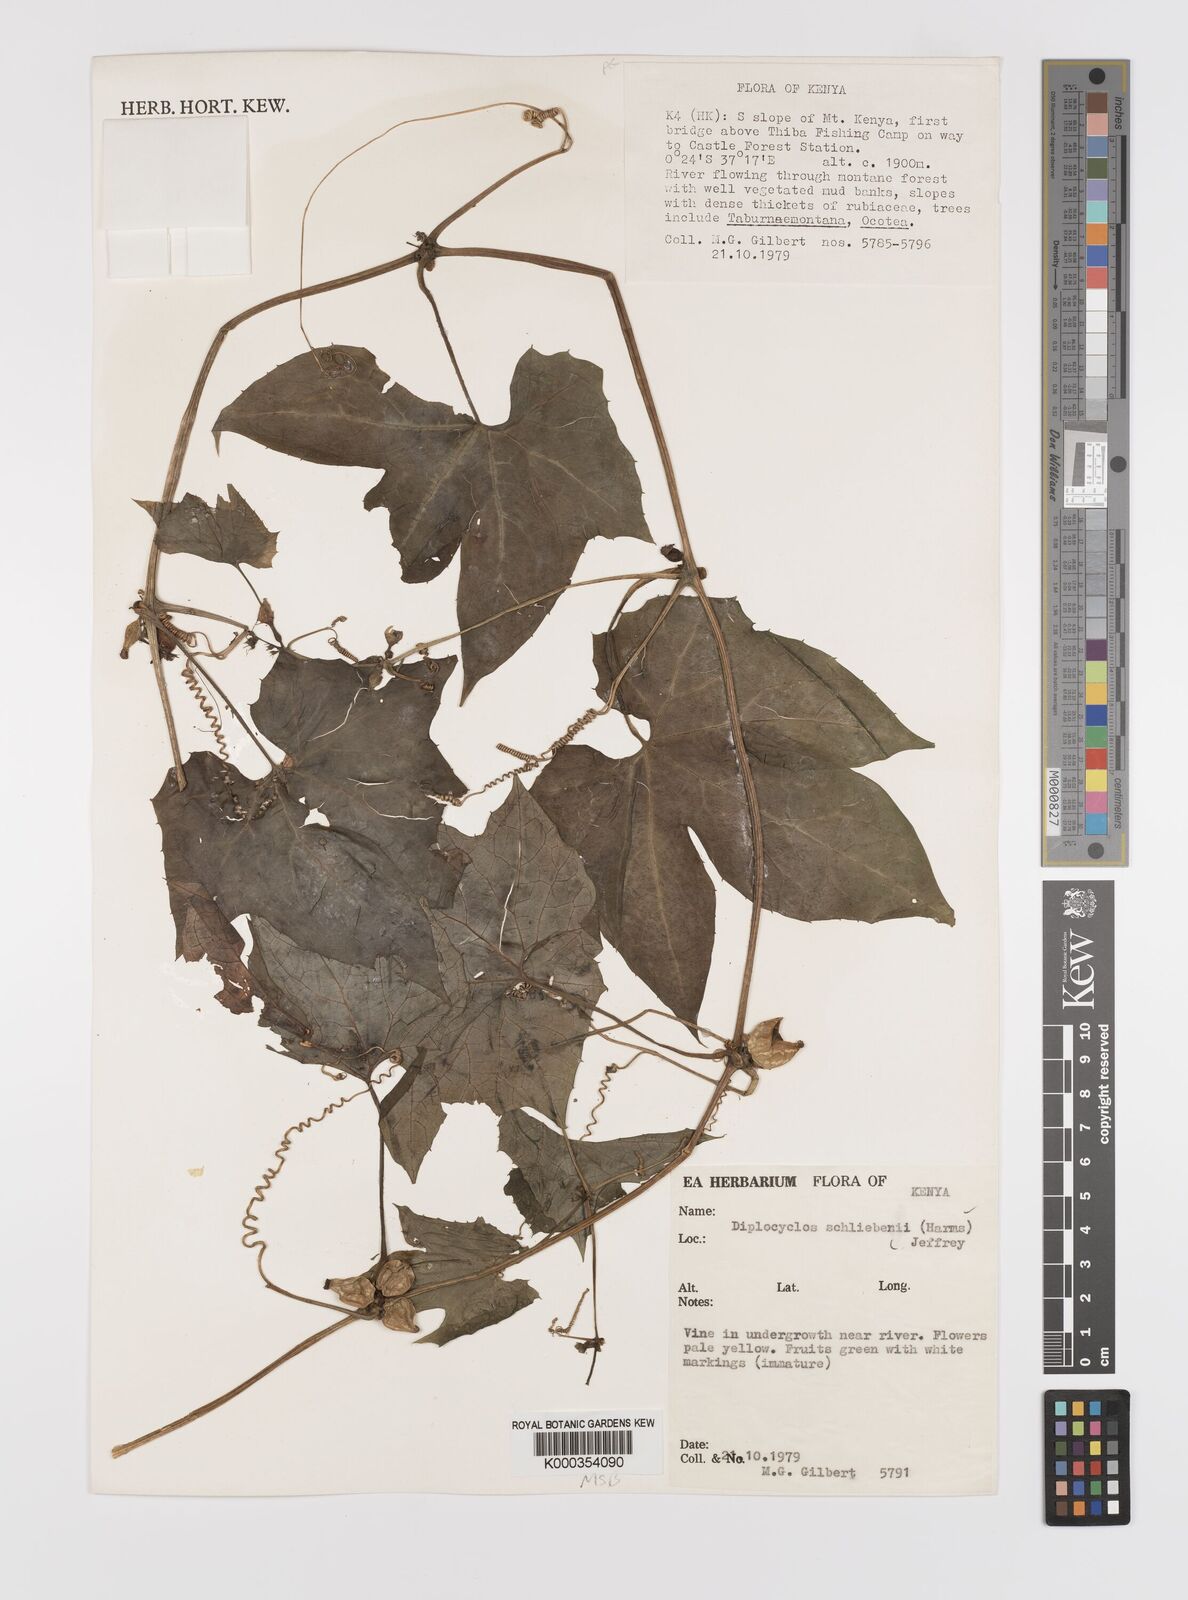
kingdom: Plantae
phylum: Tracheophyta
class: Magnoliopsida
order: Cucurbitales
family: Cucurbitaceae
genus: Diplocyclos
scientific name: Diplocyclos schliebenii
